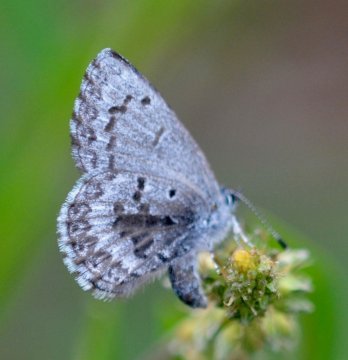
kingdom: Animalia
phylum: Arthropoda
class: Insecta
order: Lepidoptera
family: Lycaenidae
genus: Celastrina
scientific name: Celastrina lucia
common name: Northern Spring Azure
